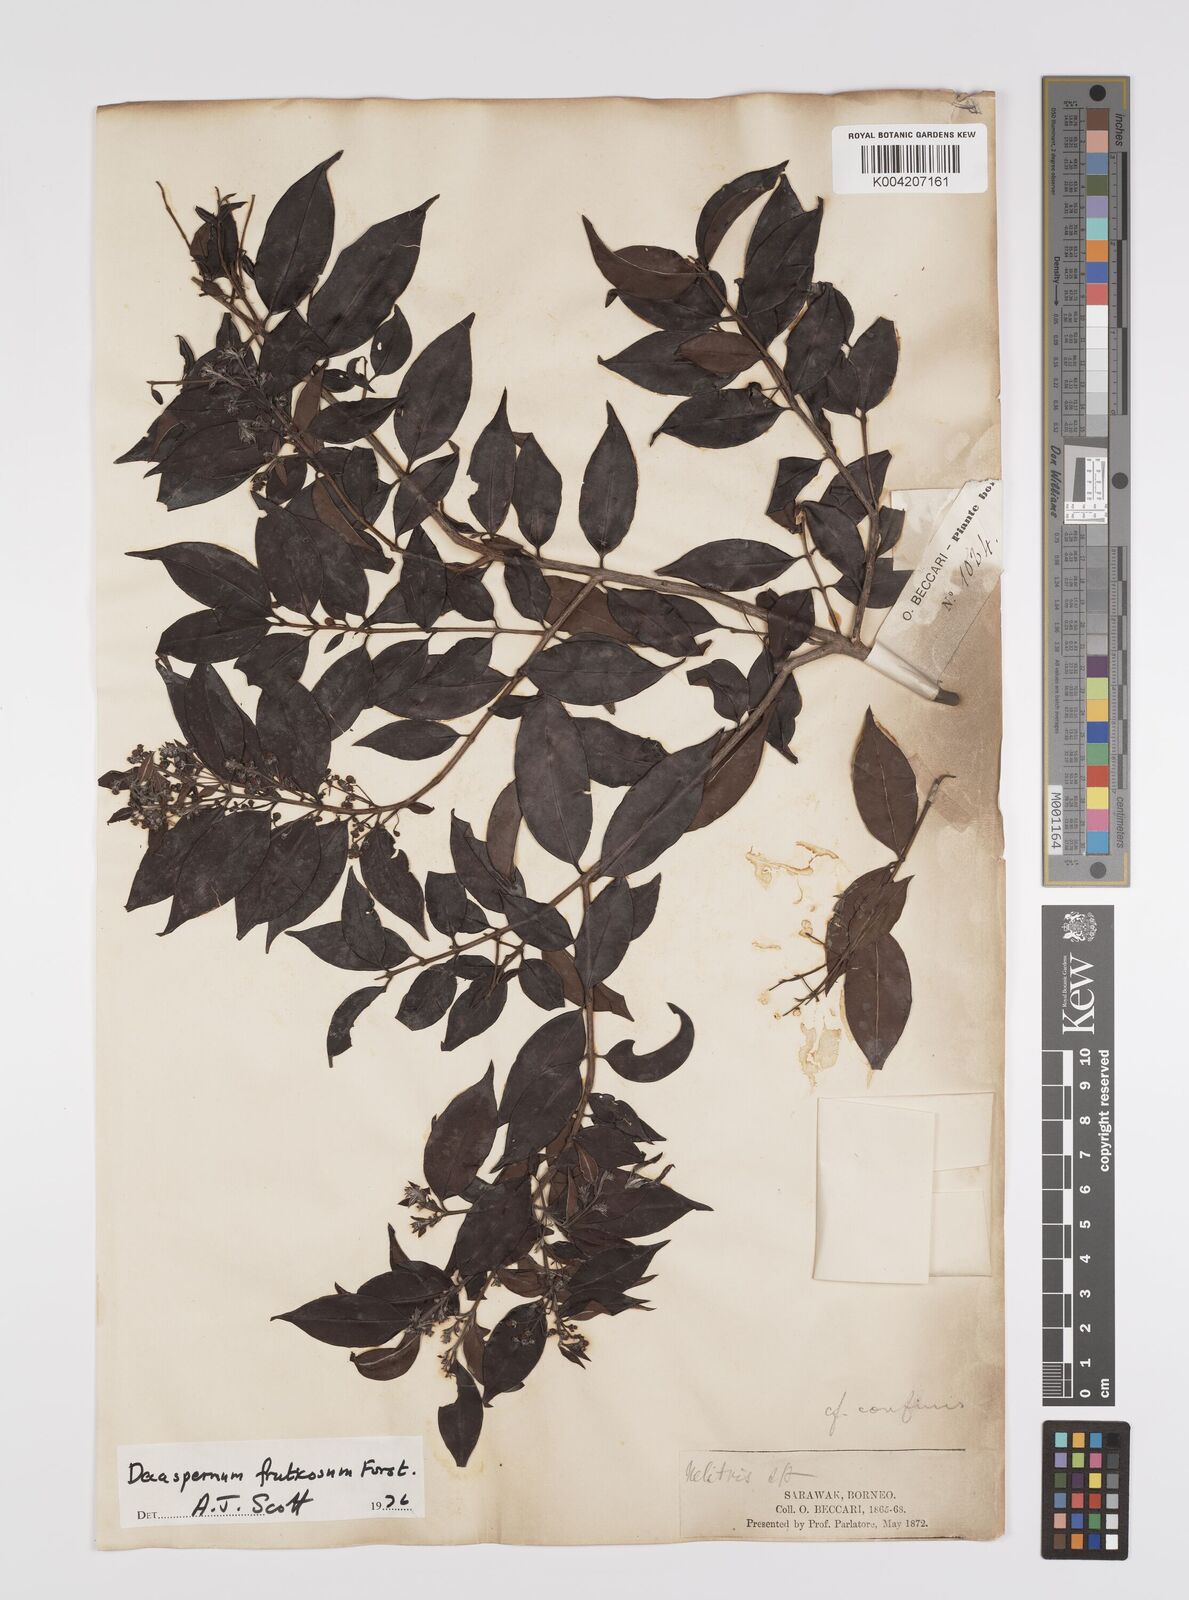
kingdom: Plantae
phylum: Tracheophyta
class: Magnoliopsida
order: Myrtales
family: Myrtaceae
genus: Decaspermum
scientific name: Decaspermum fruticosum
